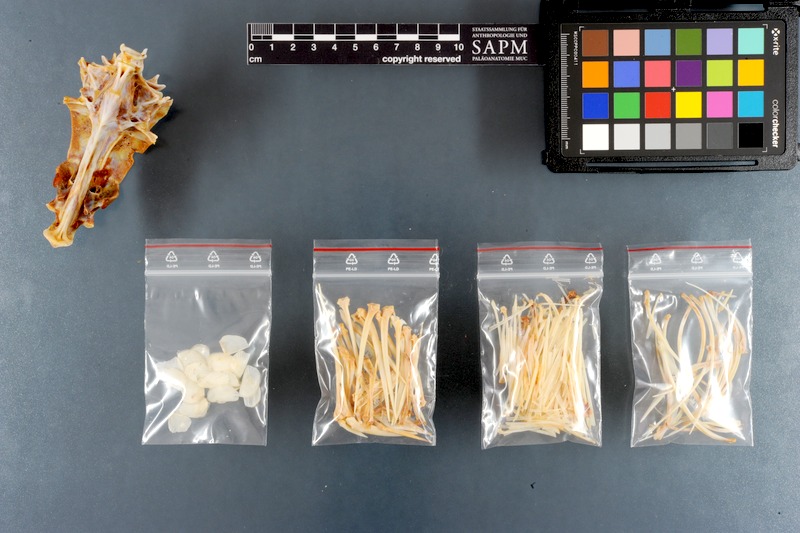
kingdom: Animalia
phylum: Chordata
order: Perciformes
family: Lutjanidae
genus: Lutjanus
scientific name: Lutjanus argentimaculatus
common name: Mangrove red snapper
